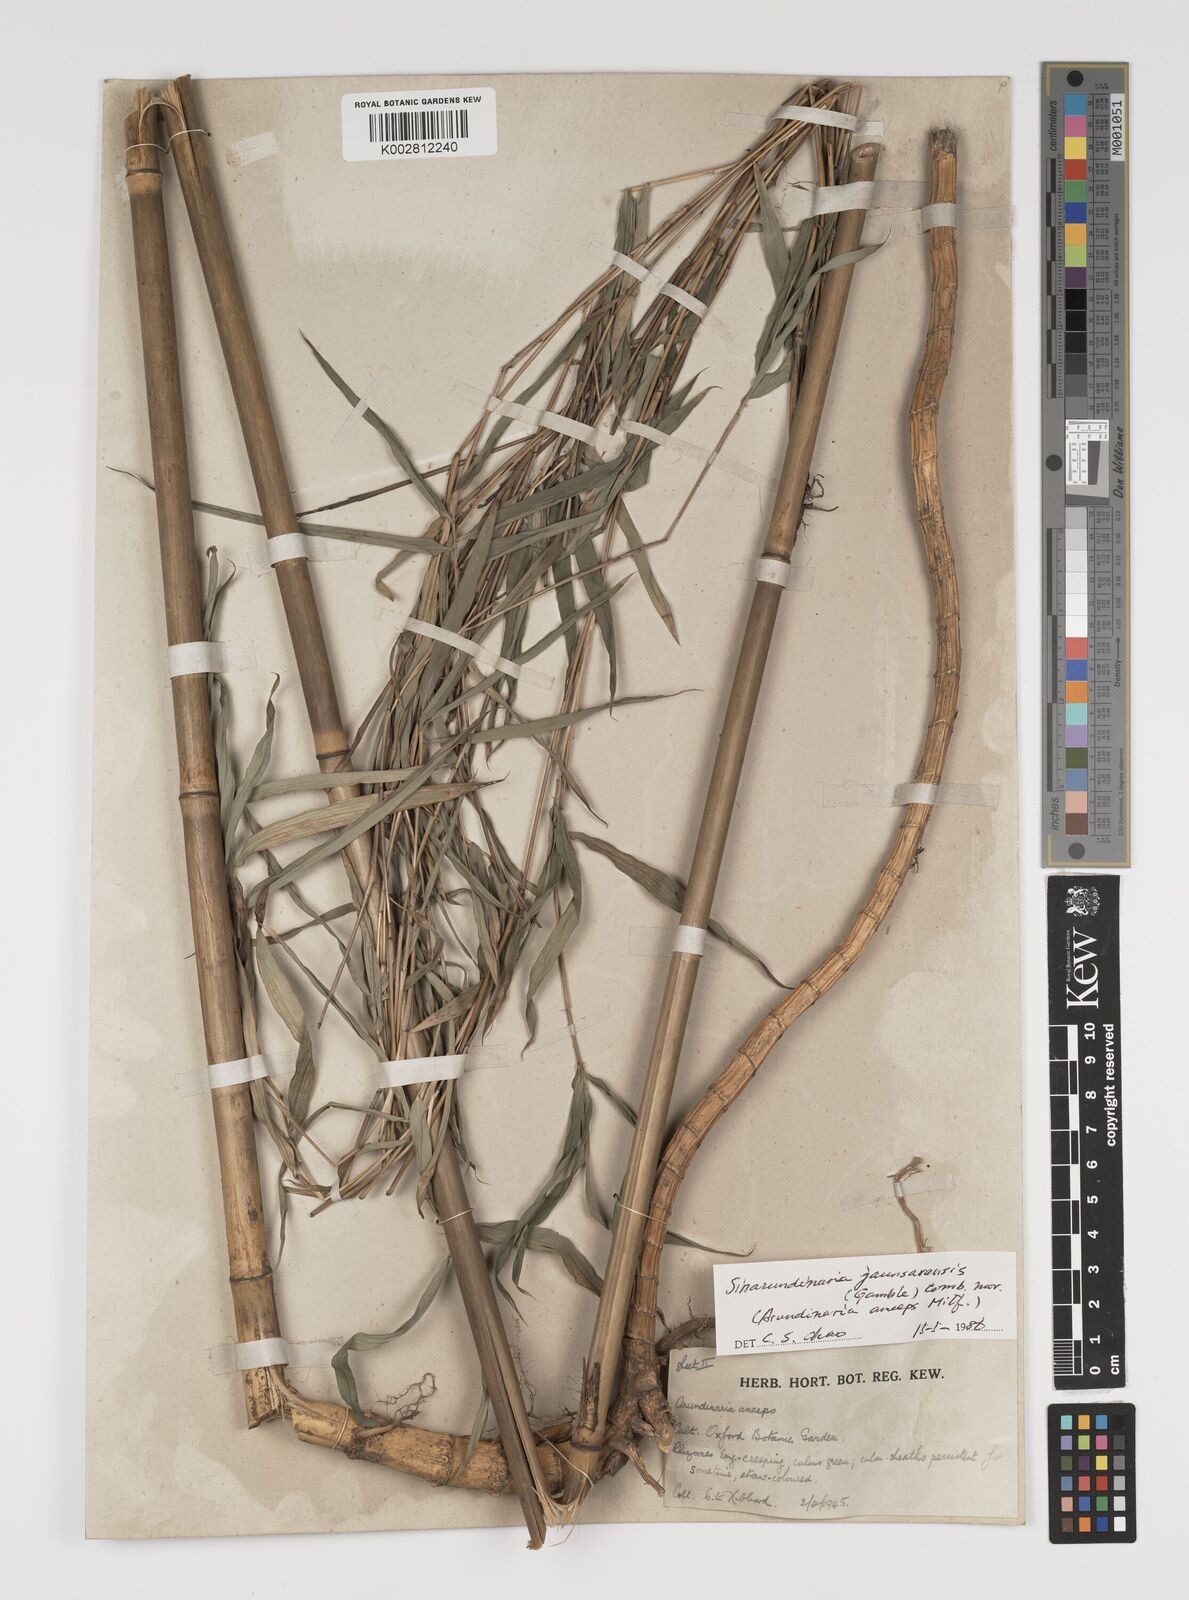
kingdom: Plantae
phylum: Tracheophyta
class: Liliopsida
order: Poales
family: Poaceae
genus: Yushania
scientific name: Yushania
